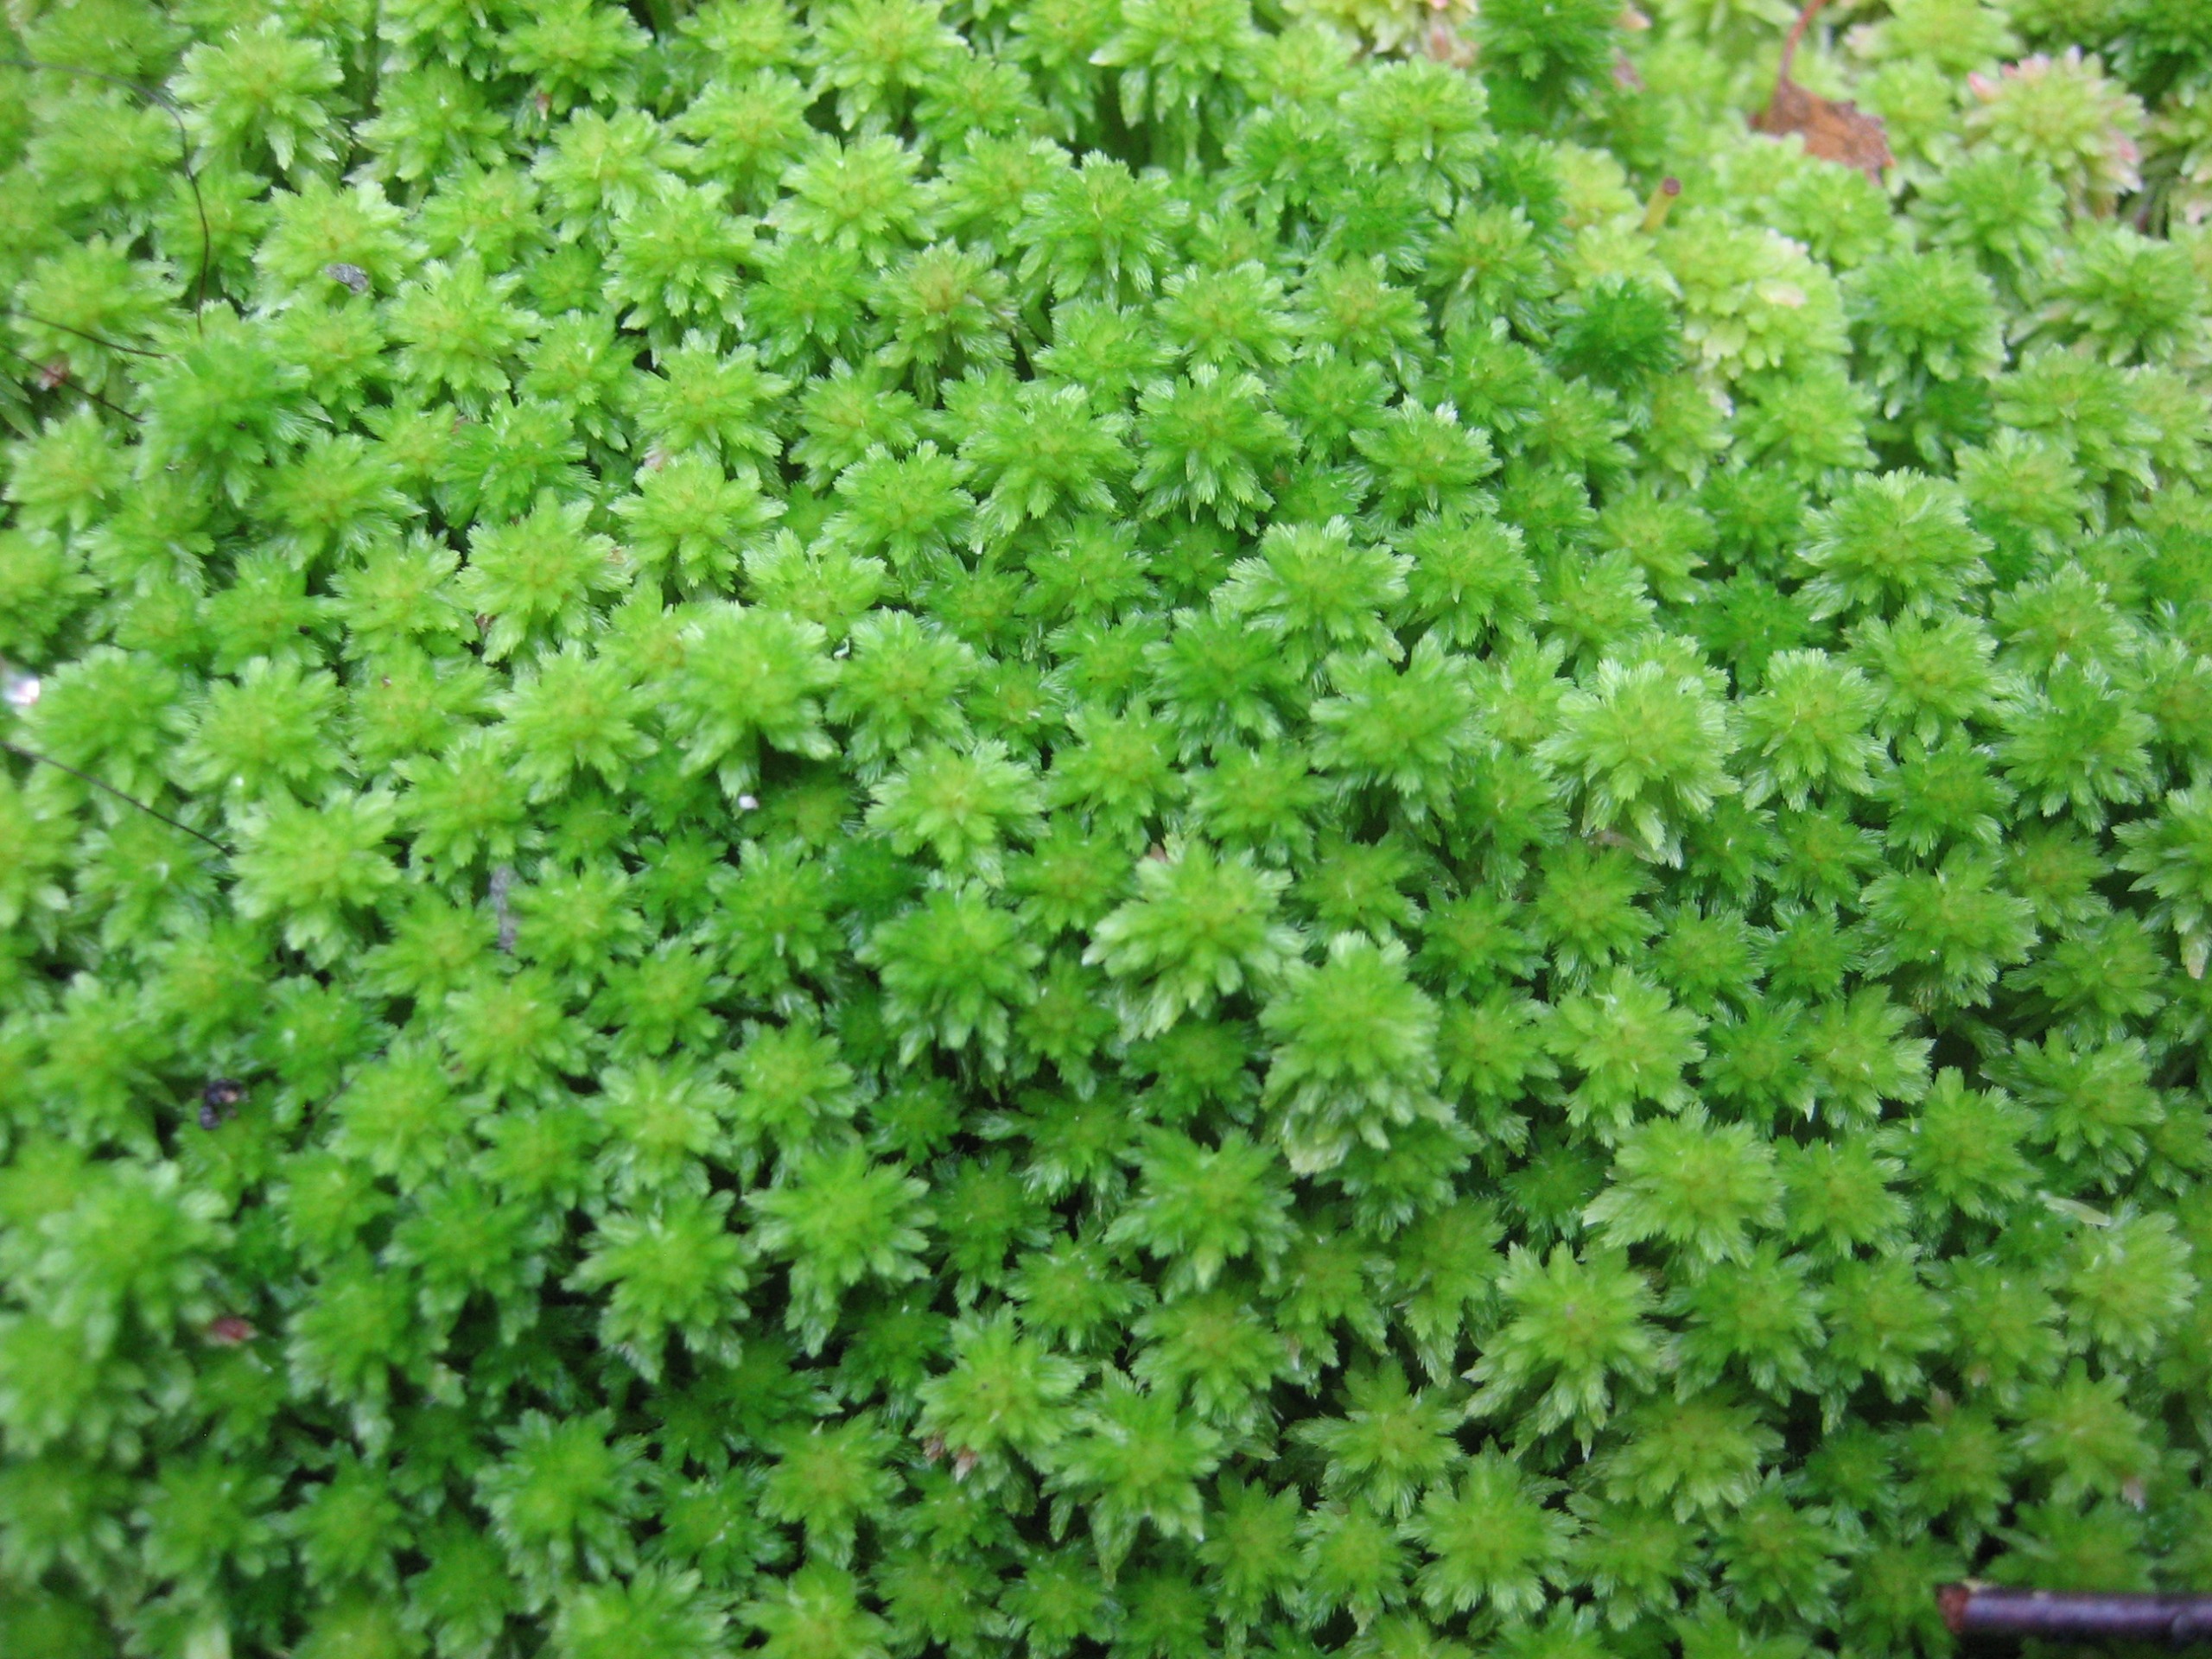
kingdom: Plantae
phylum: Bryophyta
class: Sphagnopsida
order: Sphagnales
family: Sphagnaceae
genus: Sphagnum
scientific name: Sphagnum
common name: Tørvemosslægten
